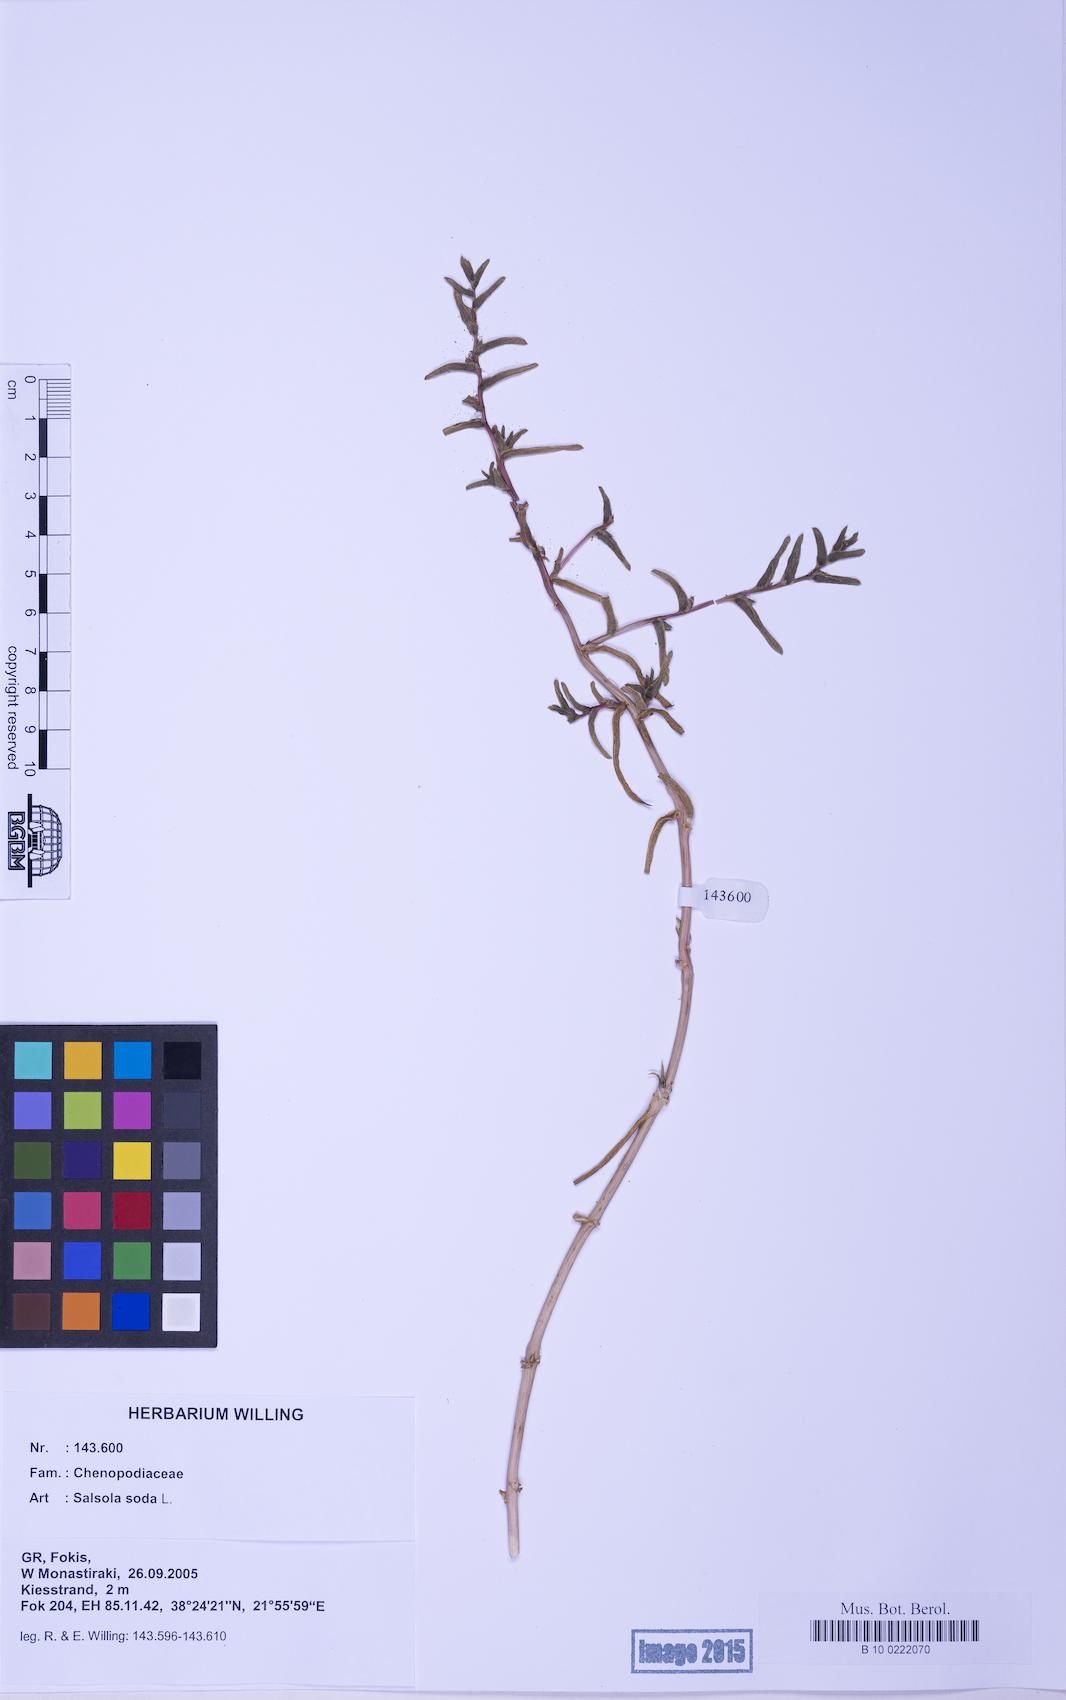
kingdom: Plantae
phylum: Tracheophyta
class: Magnoliopsida
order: Caryophyllales
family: Amaranthaceae
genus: Soda
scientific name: Soda inermis
